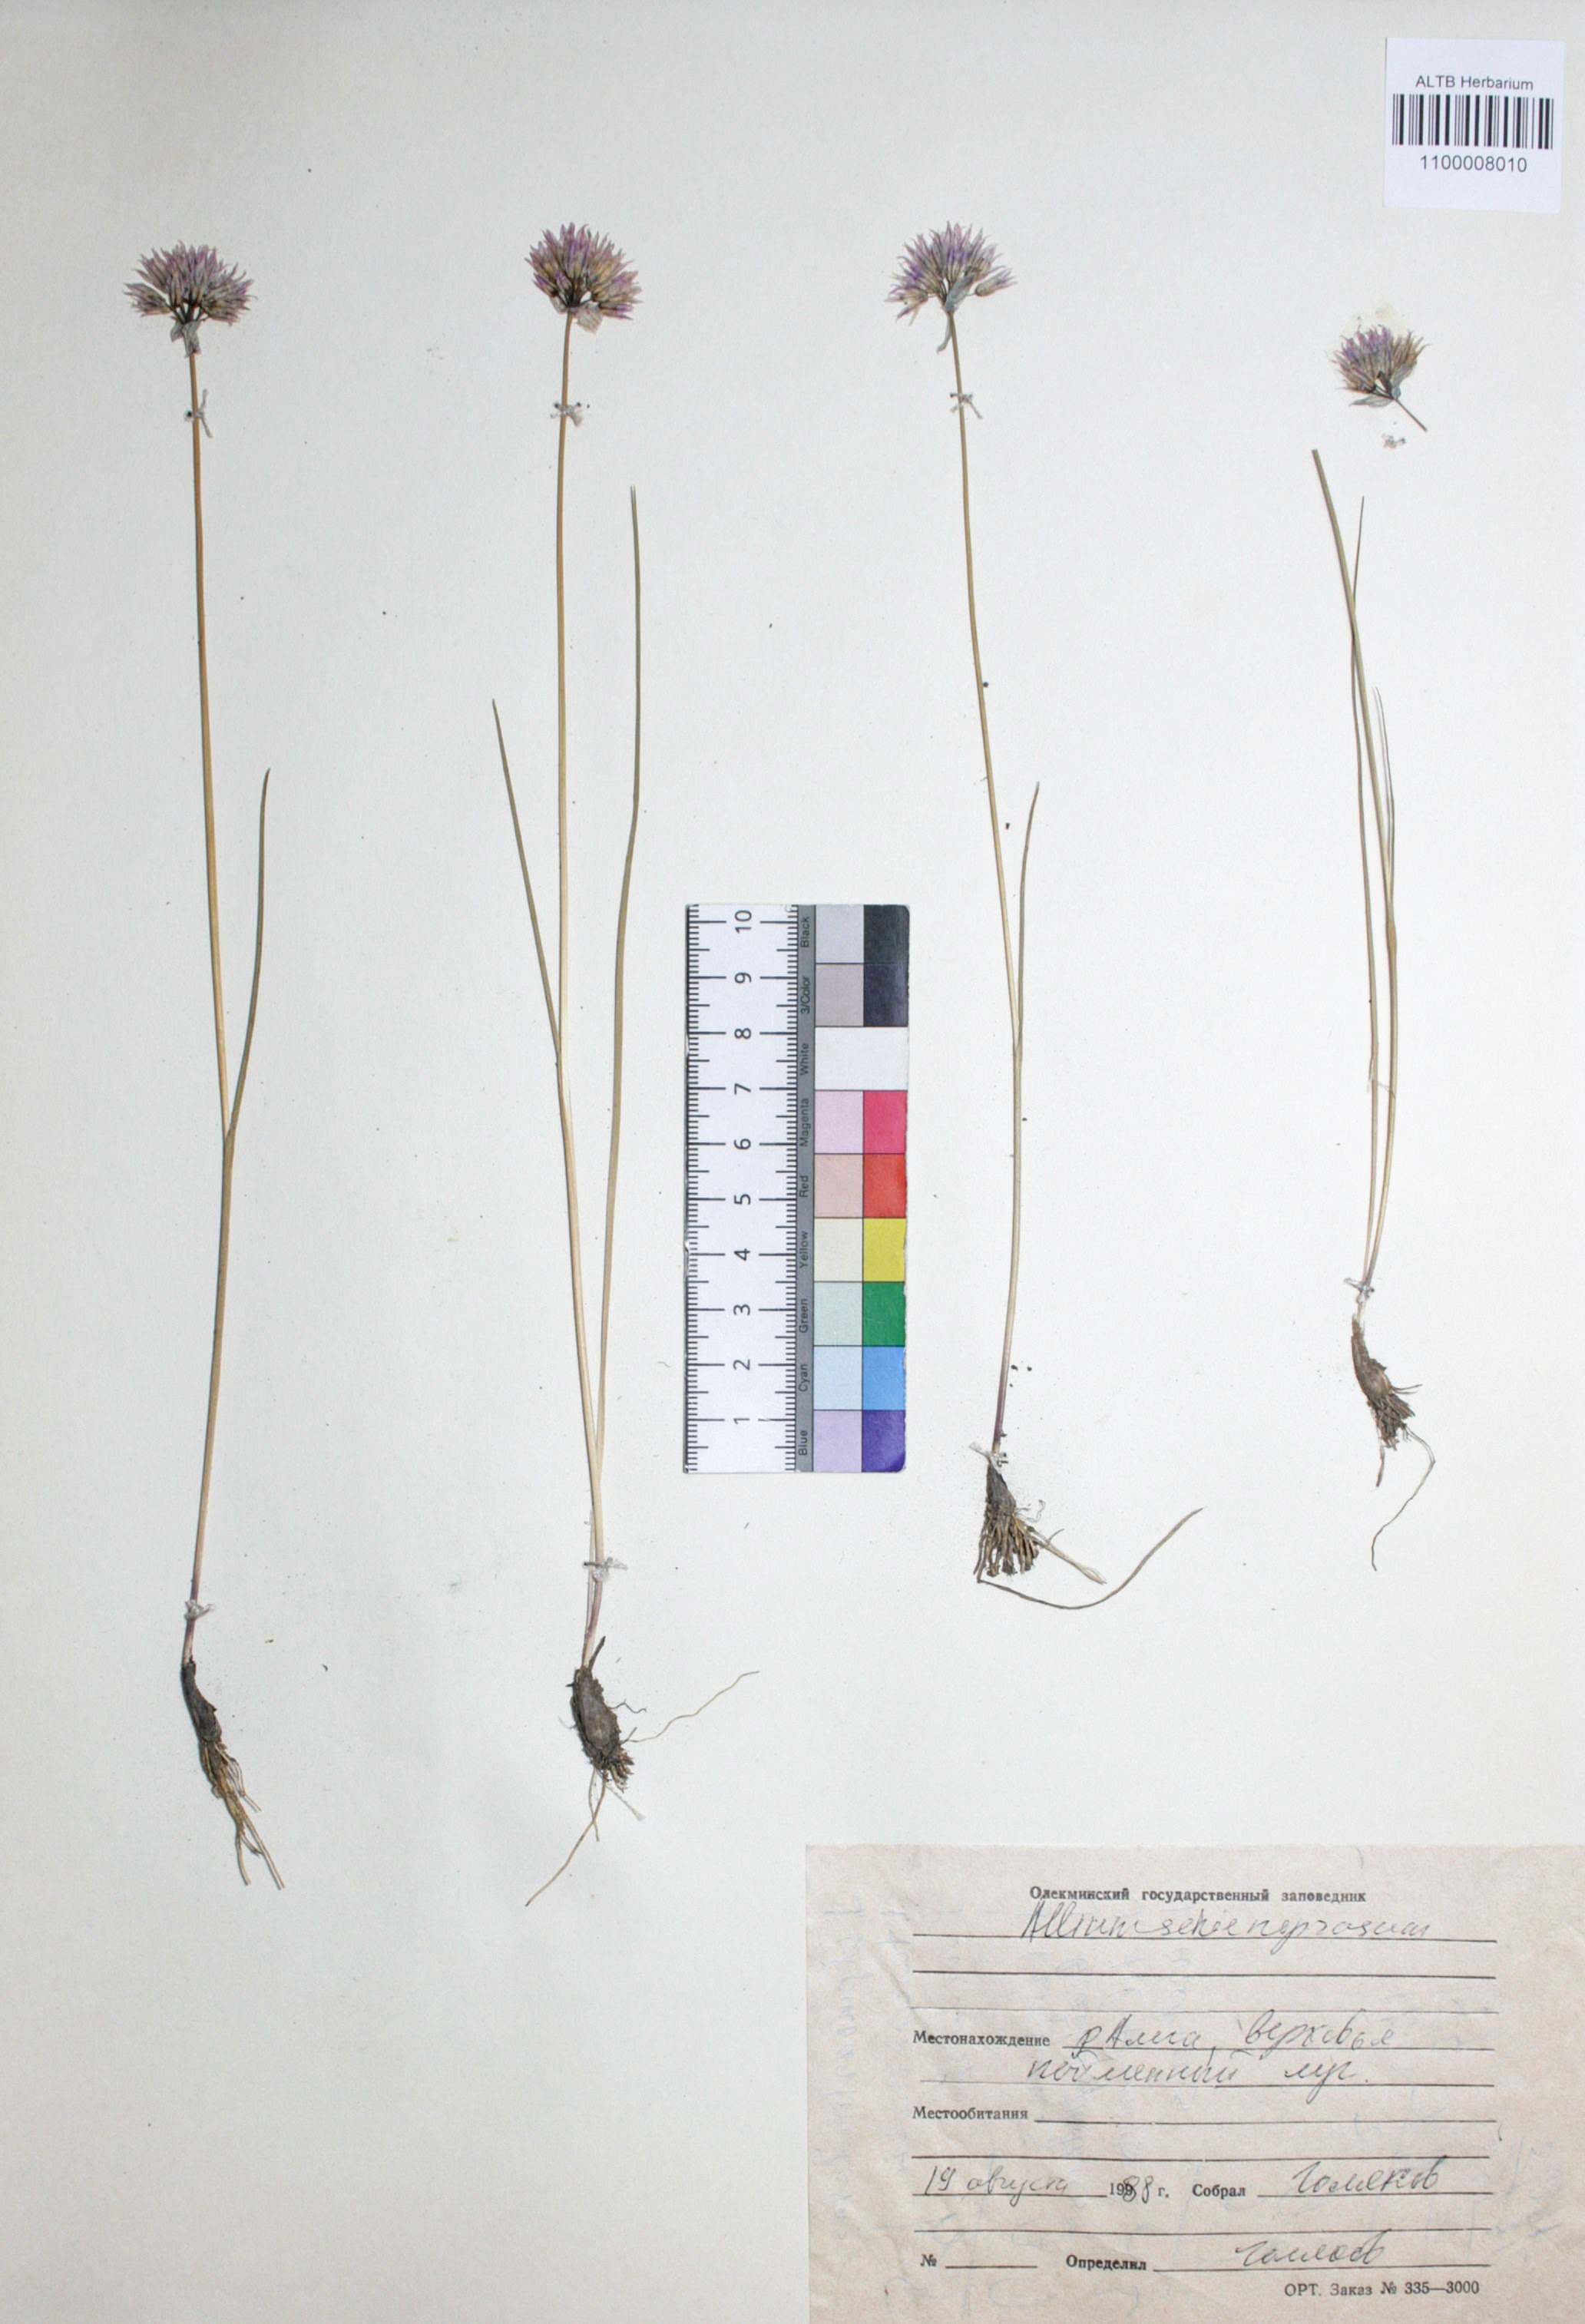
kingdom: Plantae
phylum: Tracheophyta
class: Liliopsida
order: Asparagales
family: Amaryllidaceae
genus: Allium
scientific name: Allium schoenoprasum
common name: Chives
